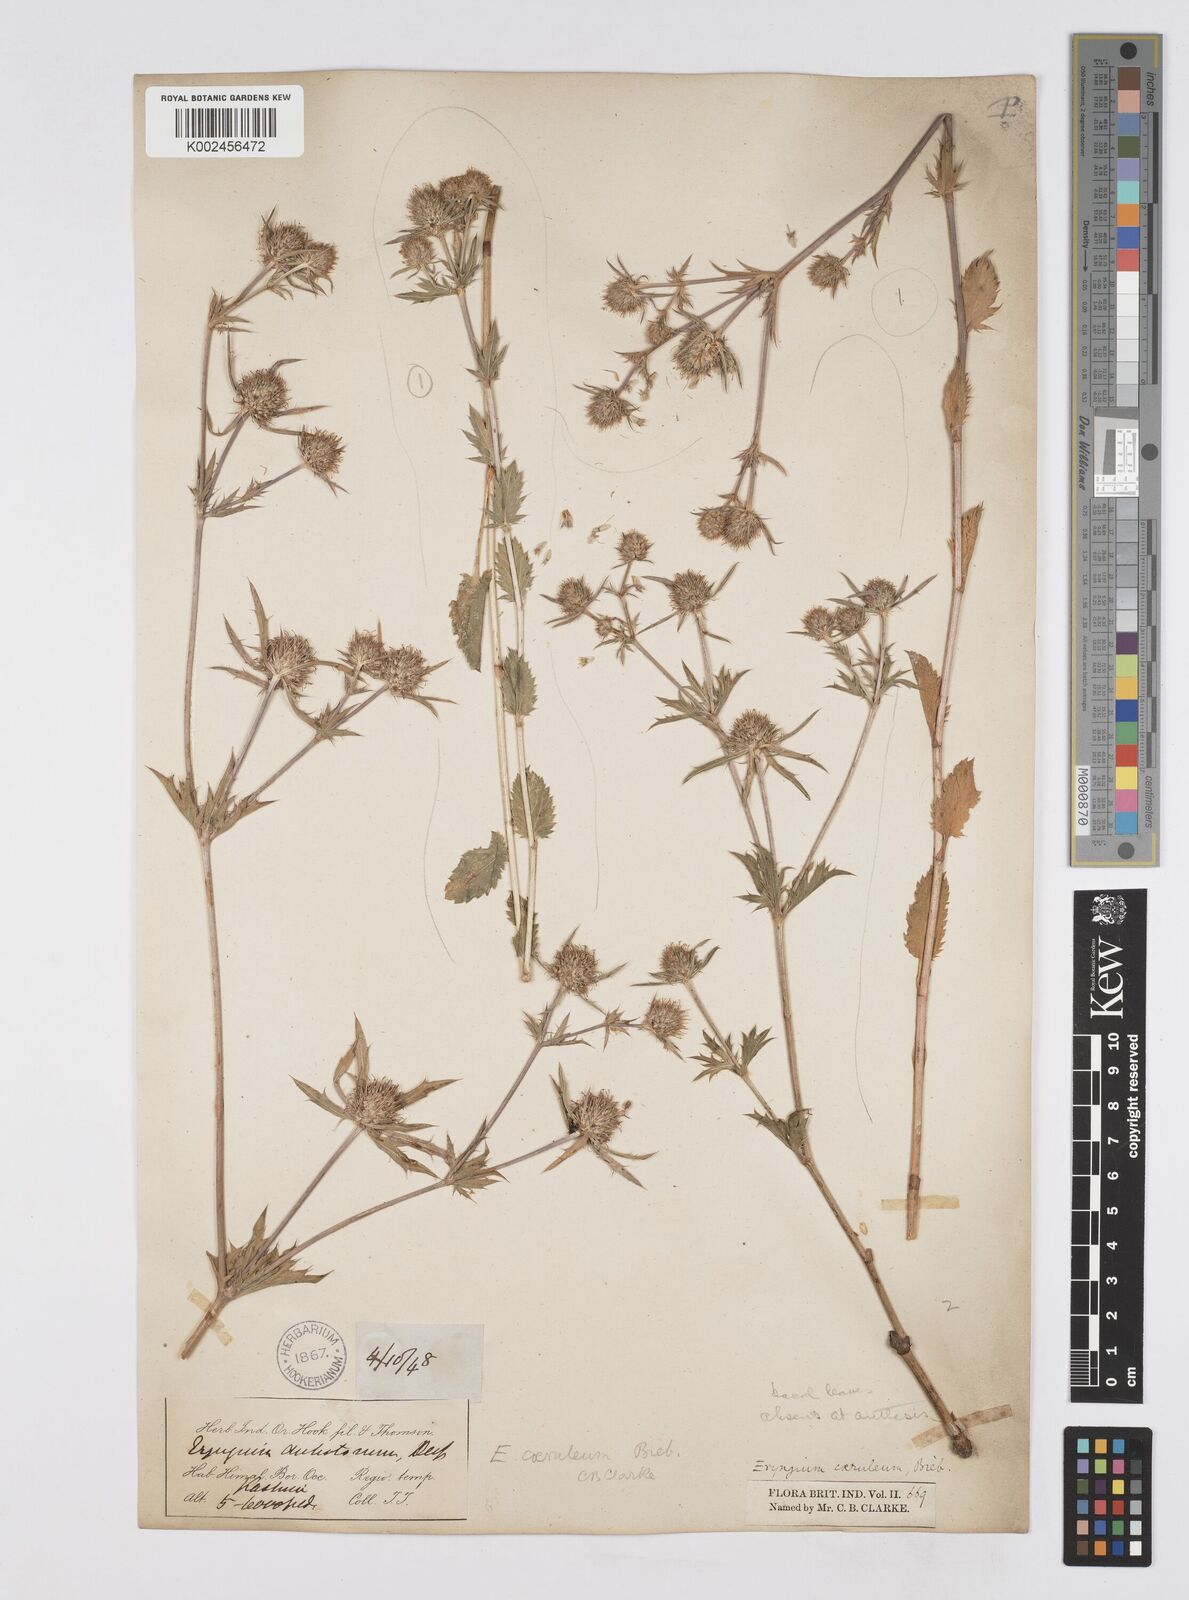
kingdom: Plantae
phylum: Tracheophyta
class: Magnoliopsida
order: Apiales
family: Apiaceae
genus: Eryngium
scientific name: Eryngium caeruleum
